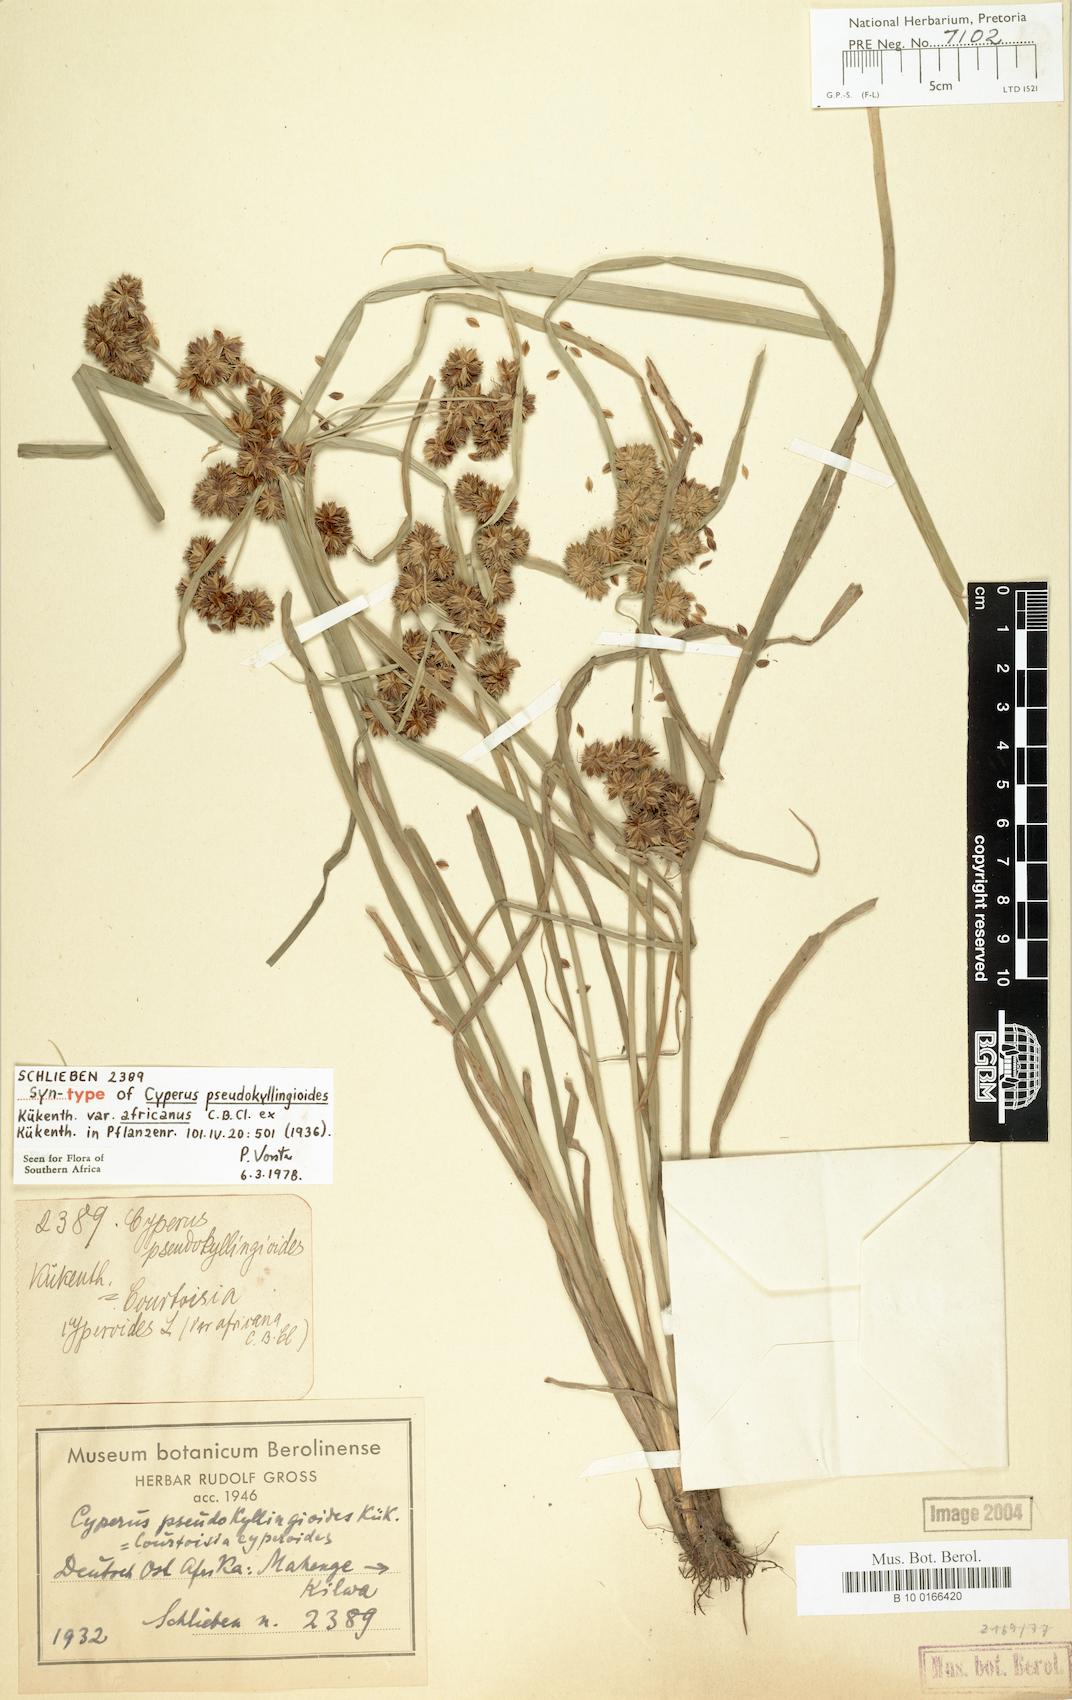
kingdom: Plantae
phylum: Tracheophyta
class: Liliopsida
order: Poales
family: Cyperaceae
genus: Cyperus
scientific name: Cyperus pseudokyllingioides
